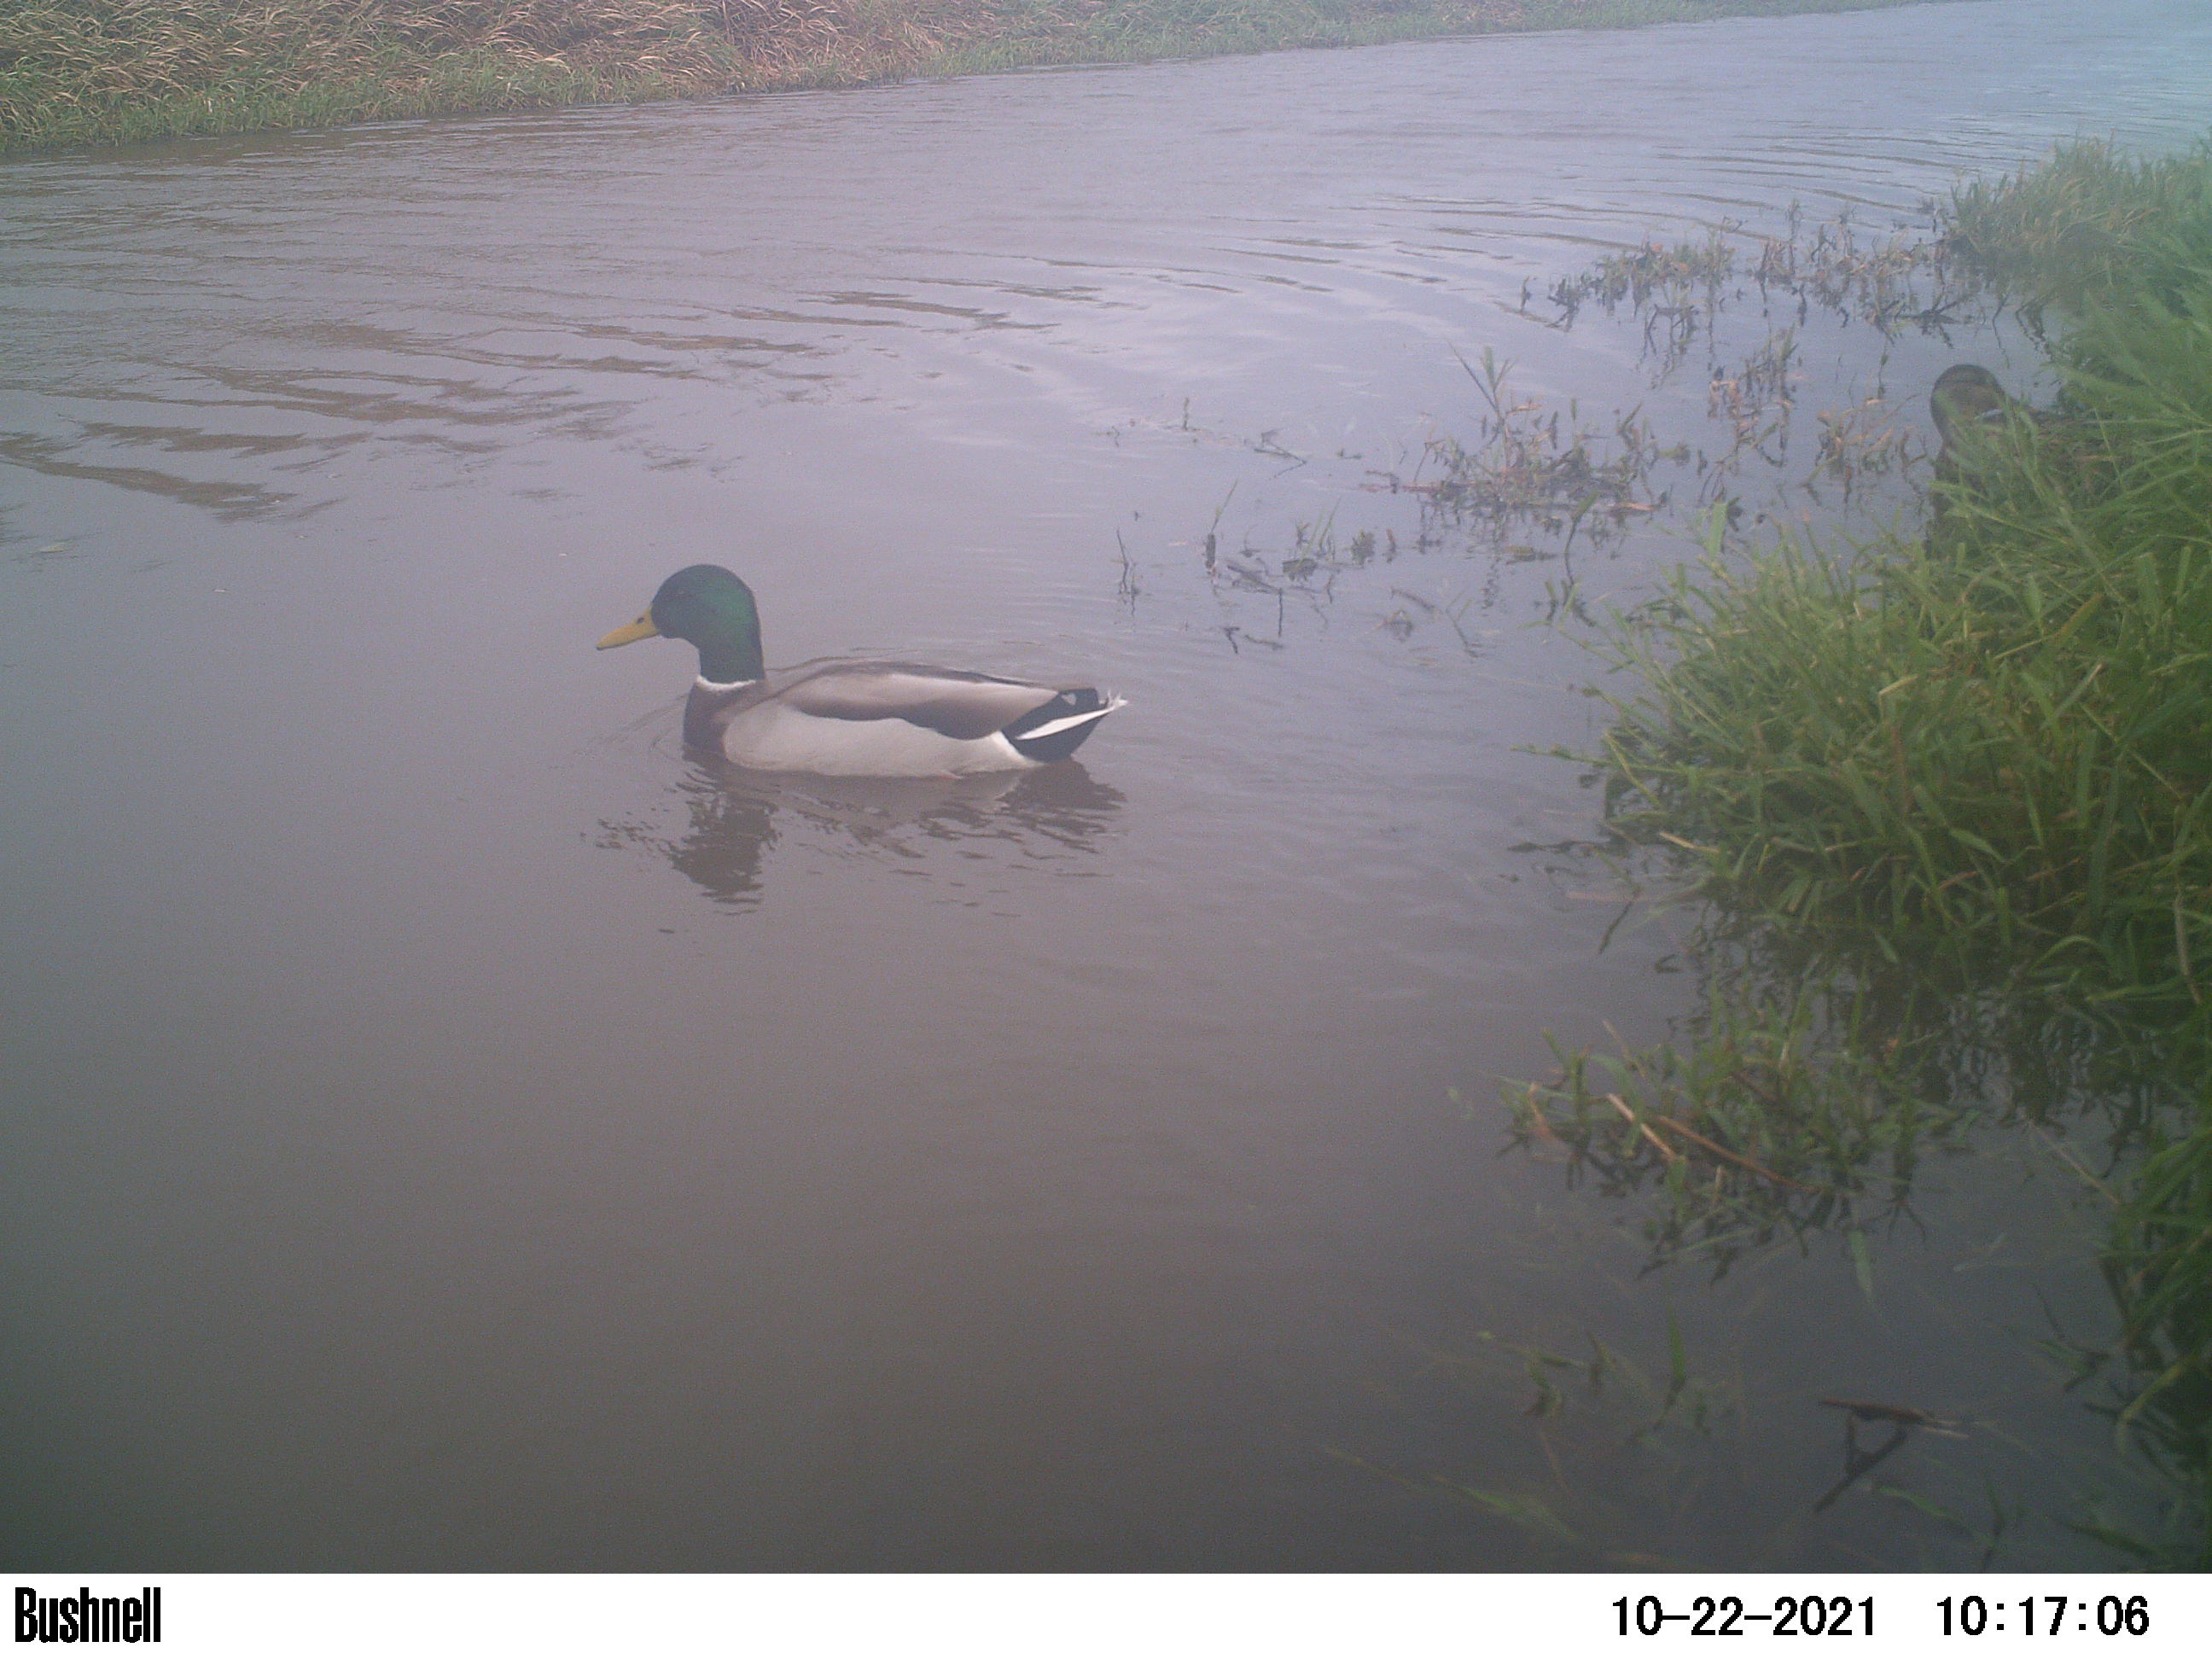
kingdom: Animalia
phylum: Chordata
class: Aves
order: Anseriformes
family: Anatidae
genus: Anas
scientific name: Anas
